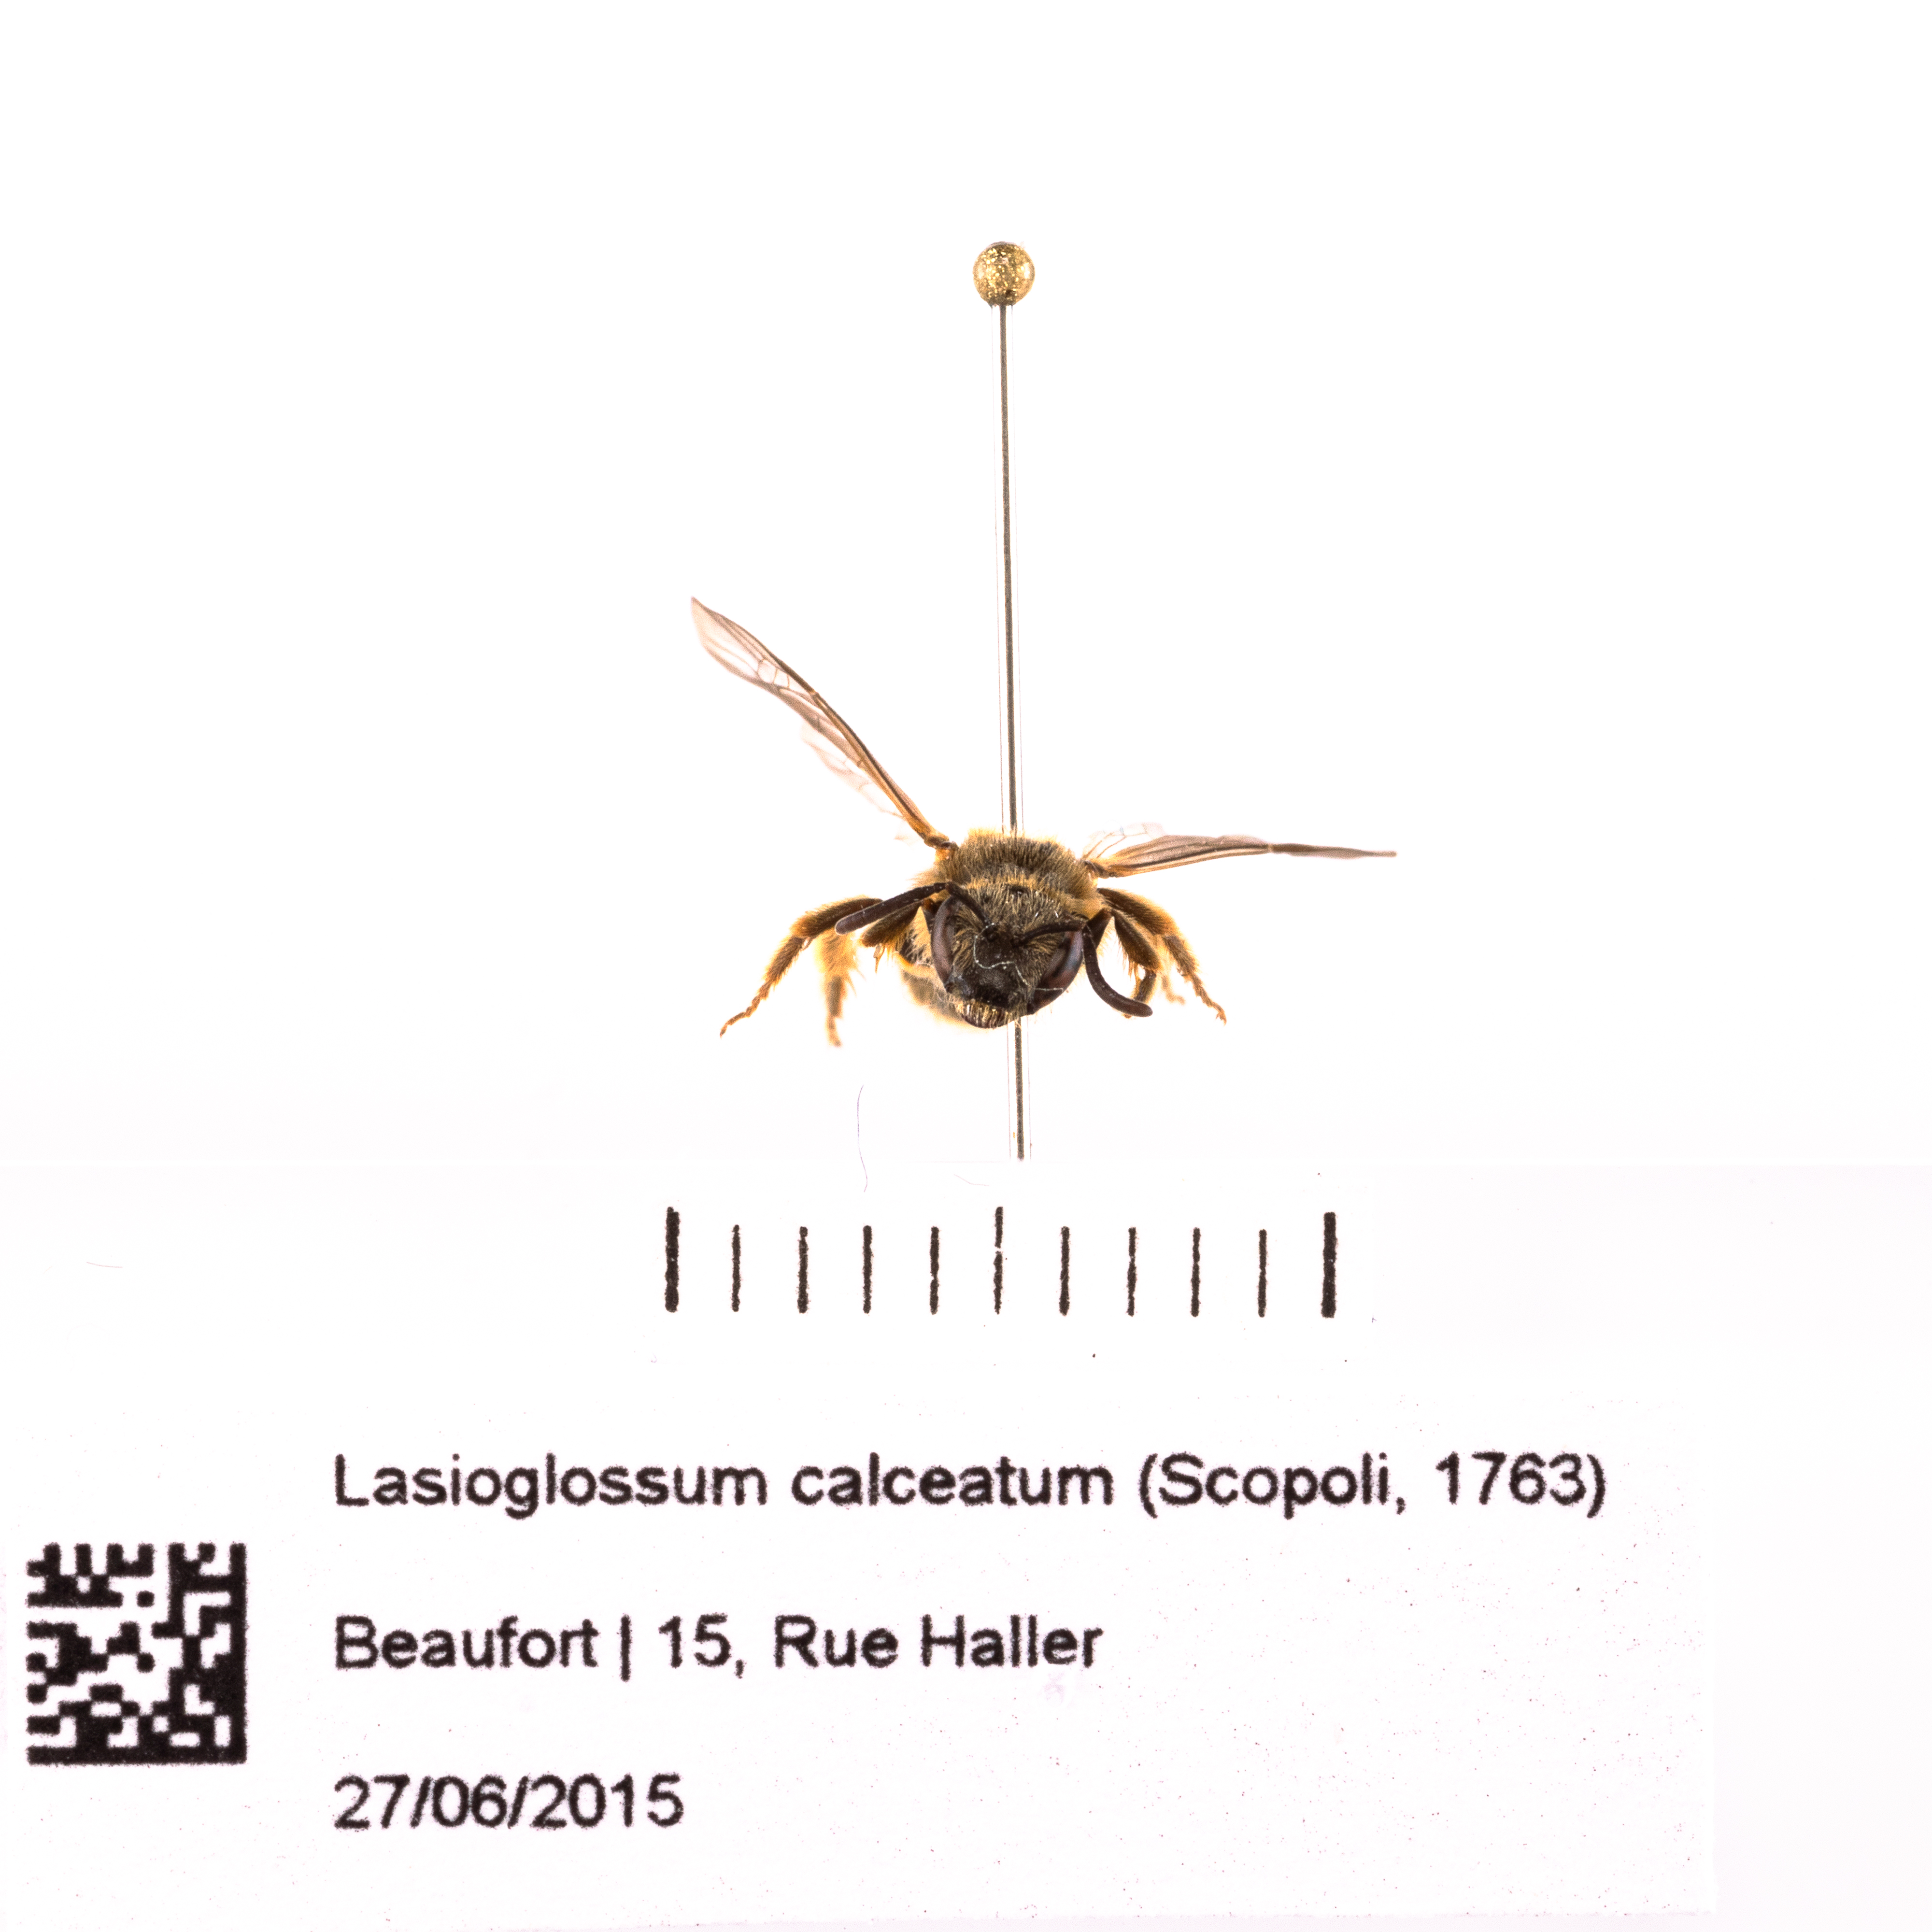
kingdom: Animalia
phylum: Arthropoda
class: Insecta
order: Hymenoptera
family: Halictidae
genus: Lasioglossum
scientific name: Lasioglossum calceatum
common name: Common furrow bee
